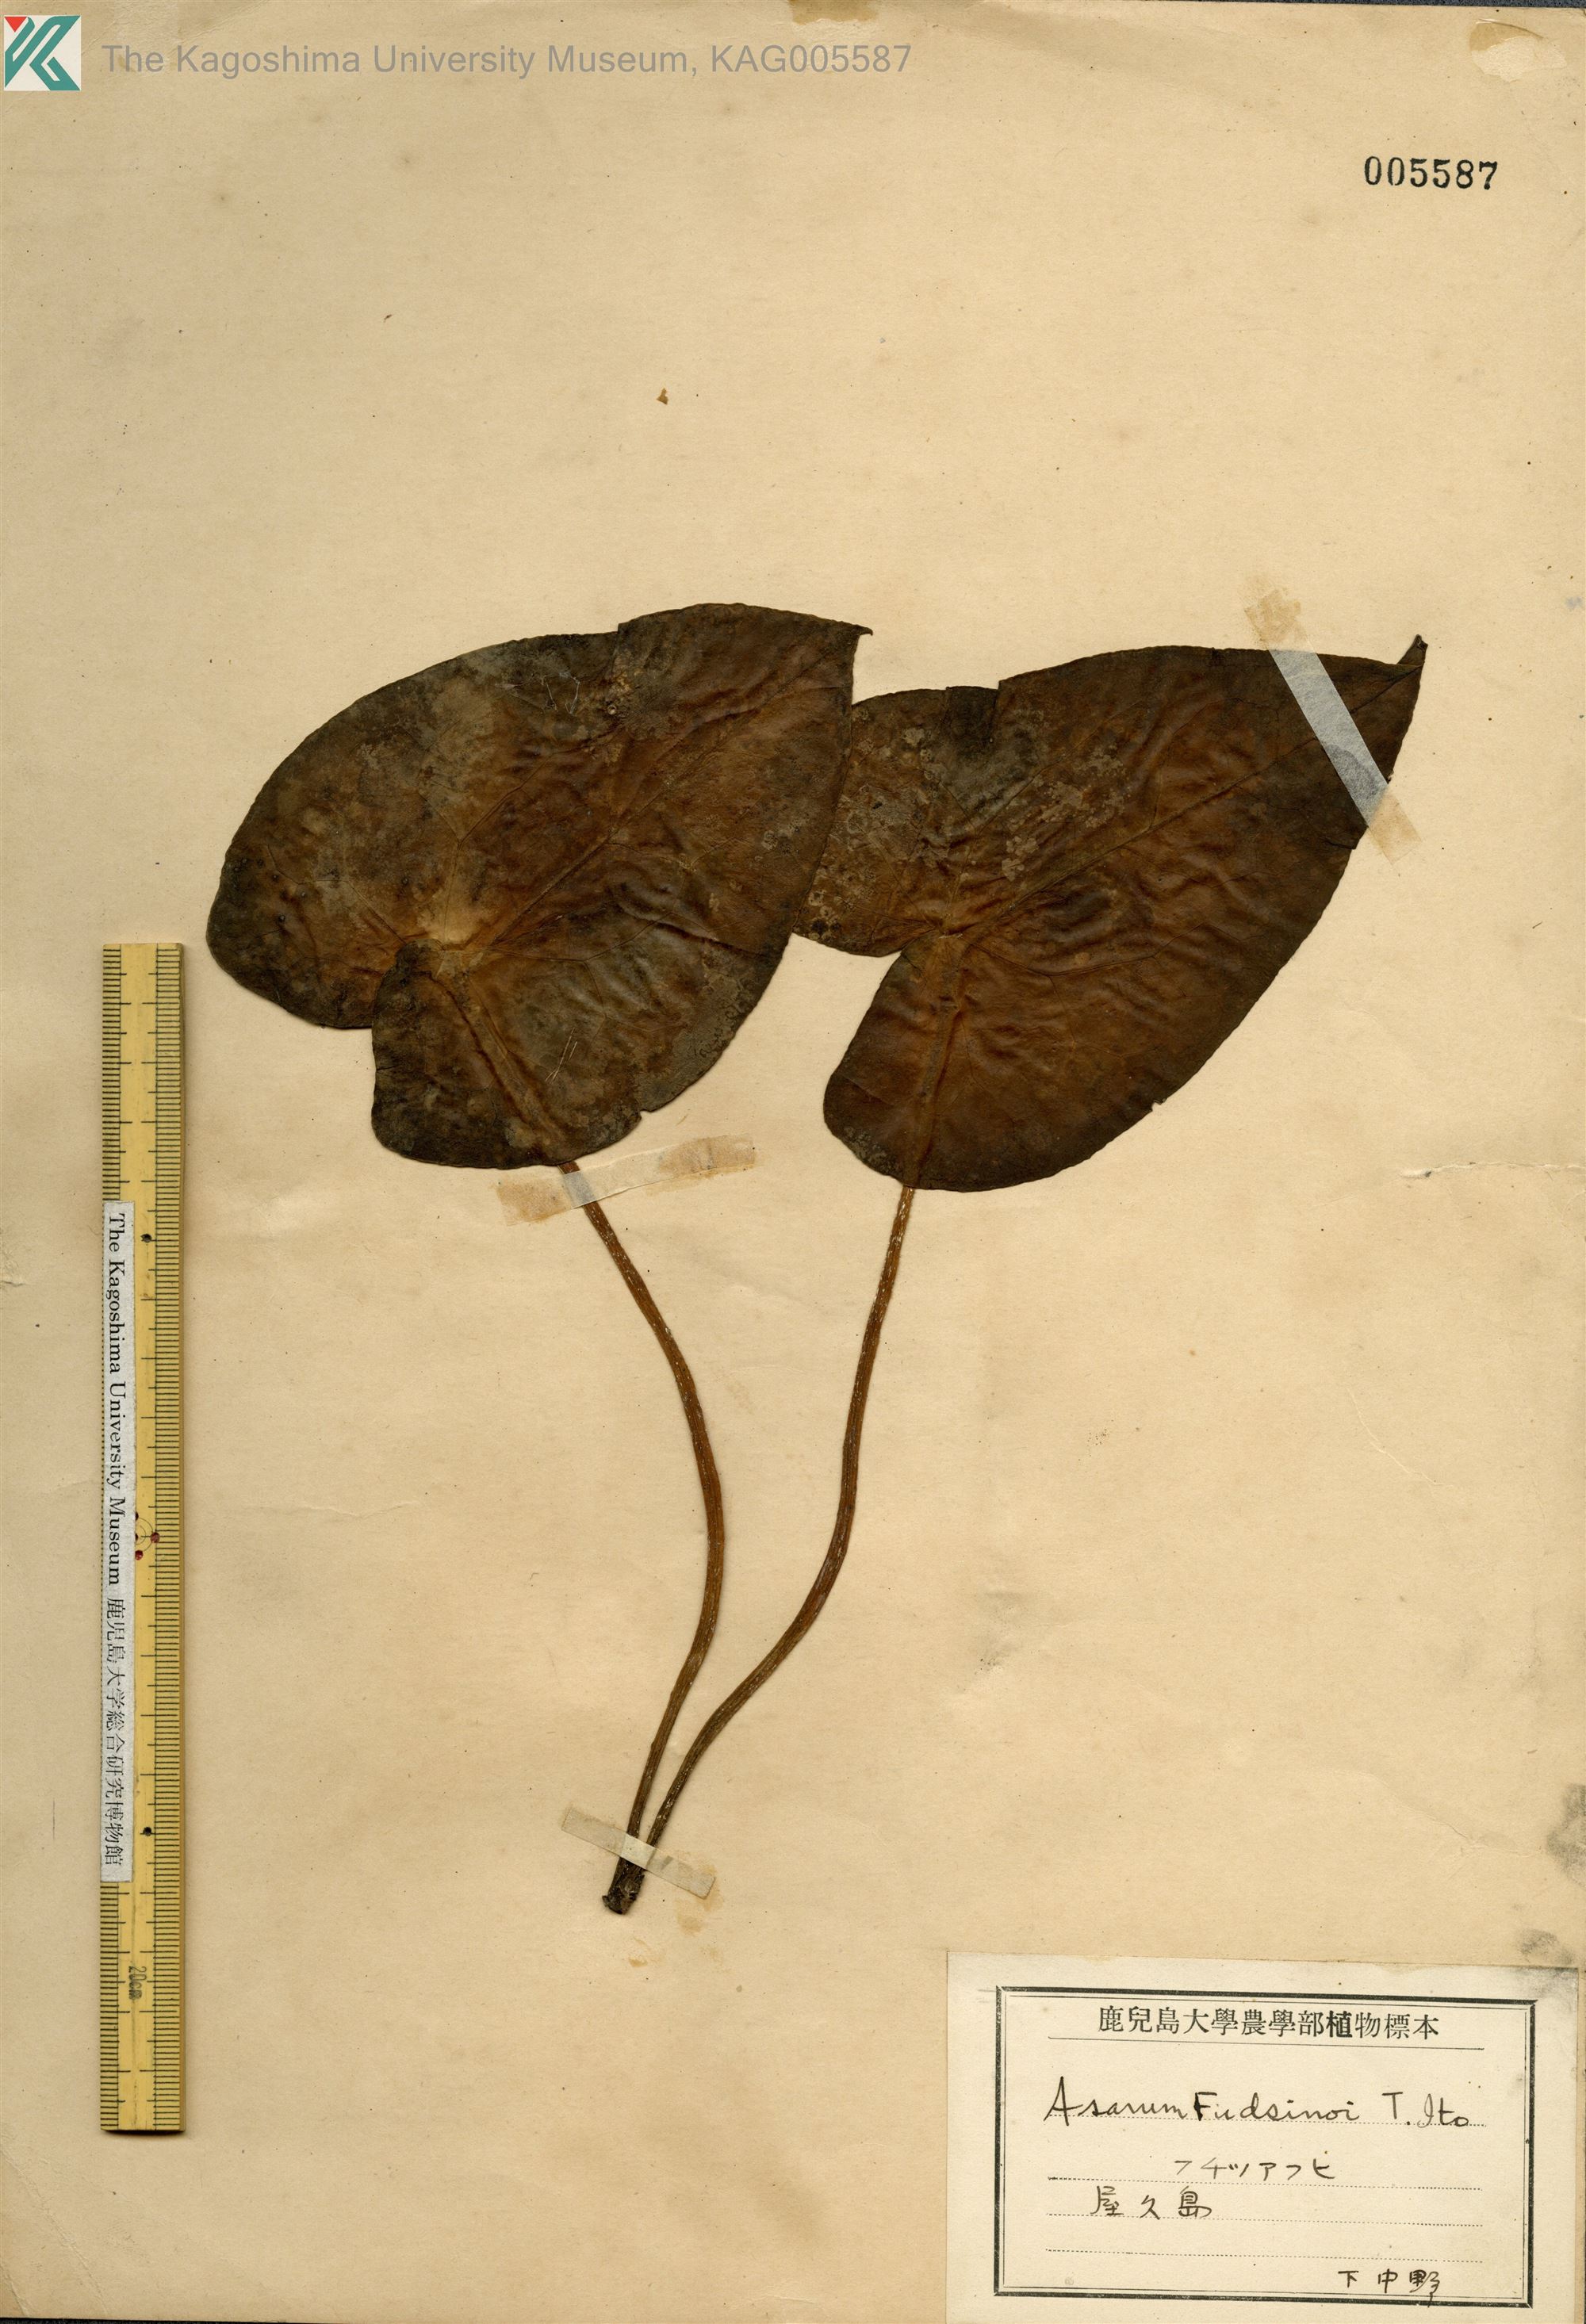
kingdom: Plantae
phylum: Tracheophyta
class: Magnoliopsida
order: Piperales
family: Aristolochiaceae
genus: Asarum
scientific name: Asarum kumageanum
